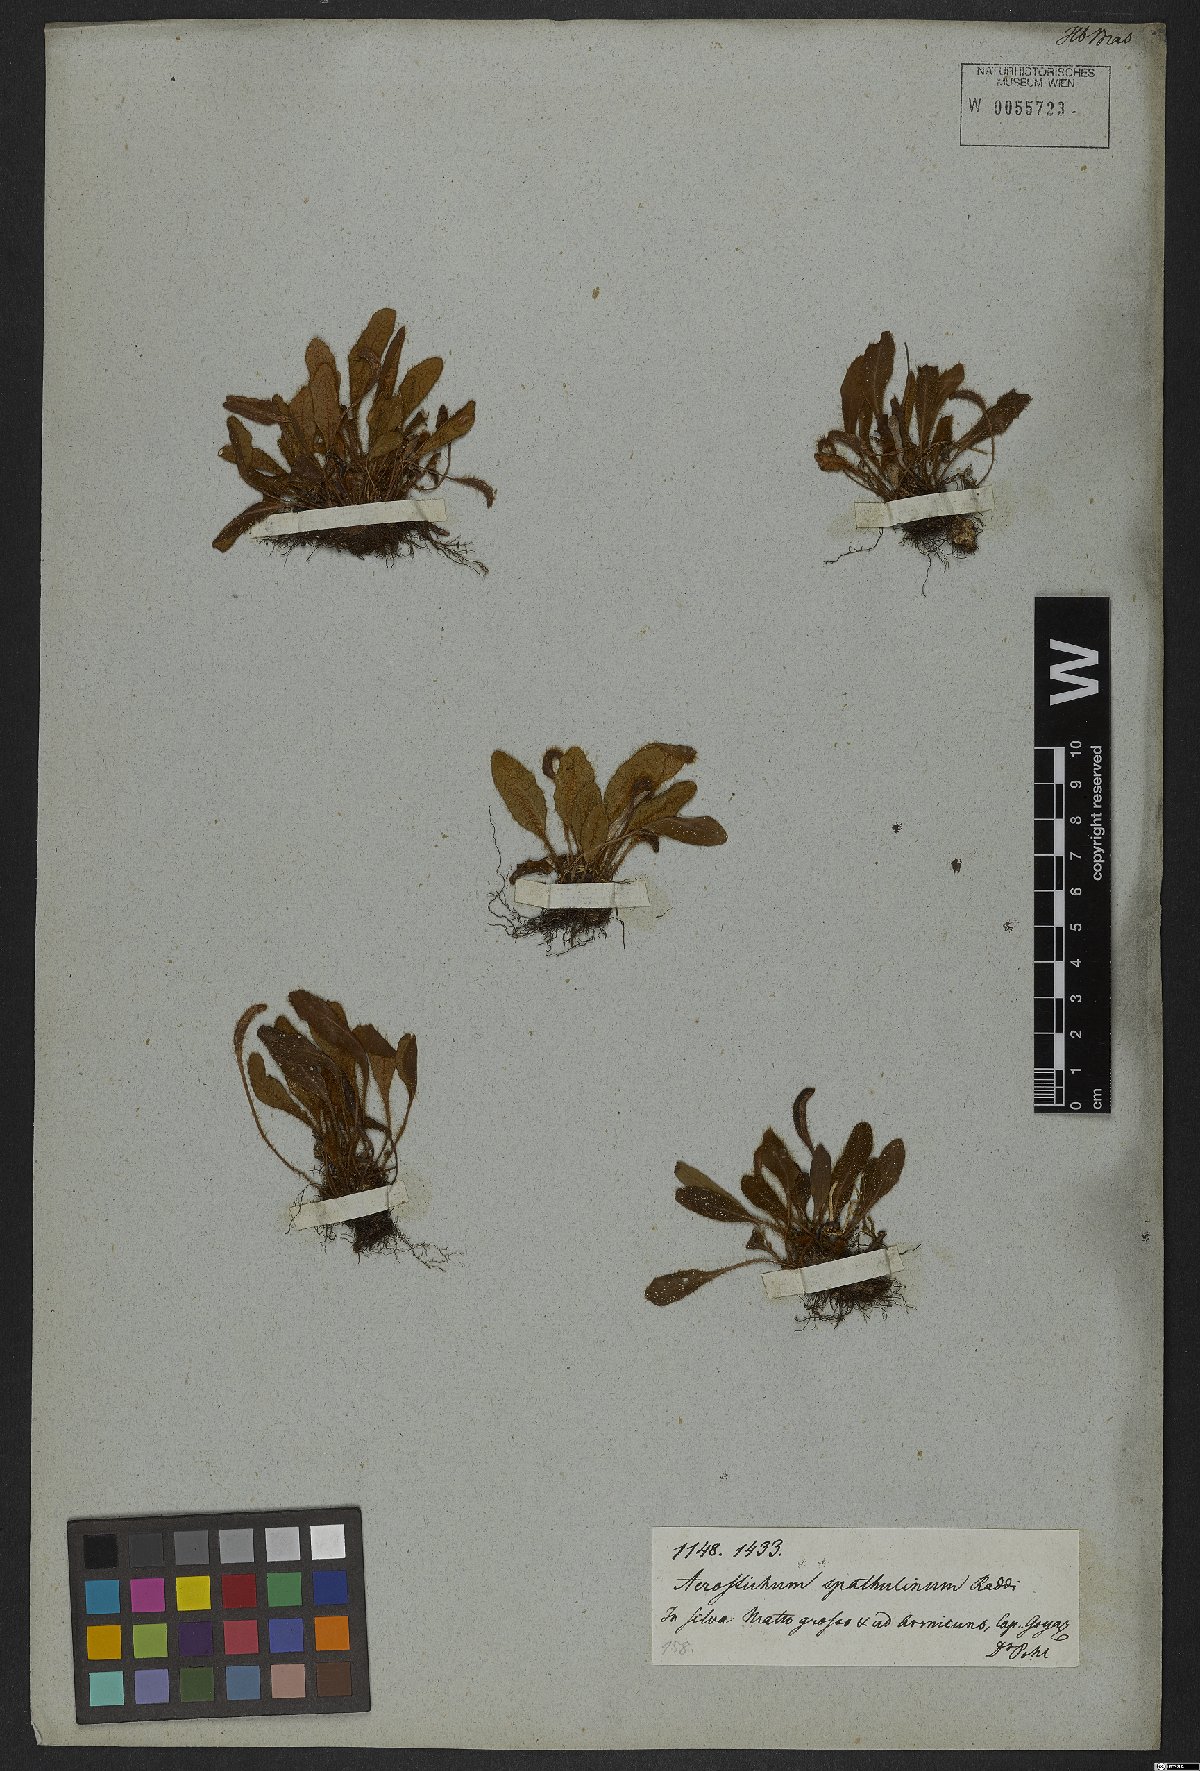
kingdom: Plantae
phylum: Tracheophyta
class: Polypodiopsida
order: Polypodiales
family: Dryopteridaceae
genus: Elaphoglossum
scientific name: Elaphoglossum spatulatum
